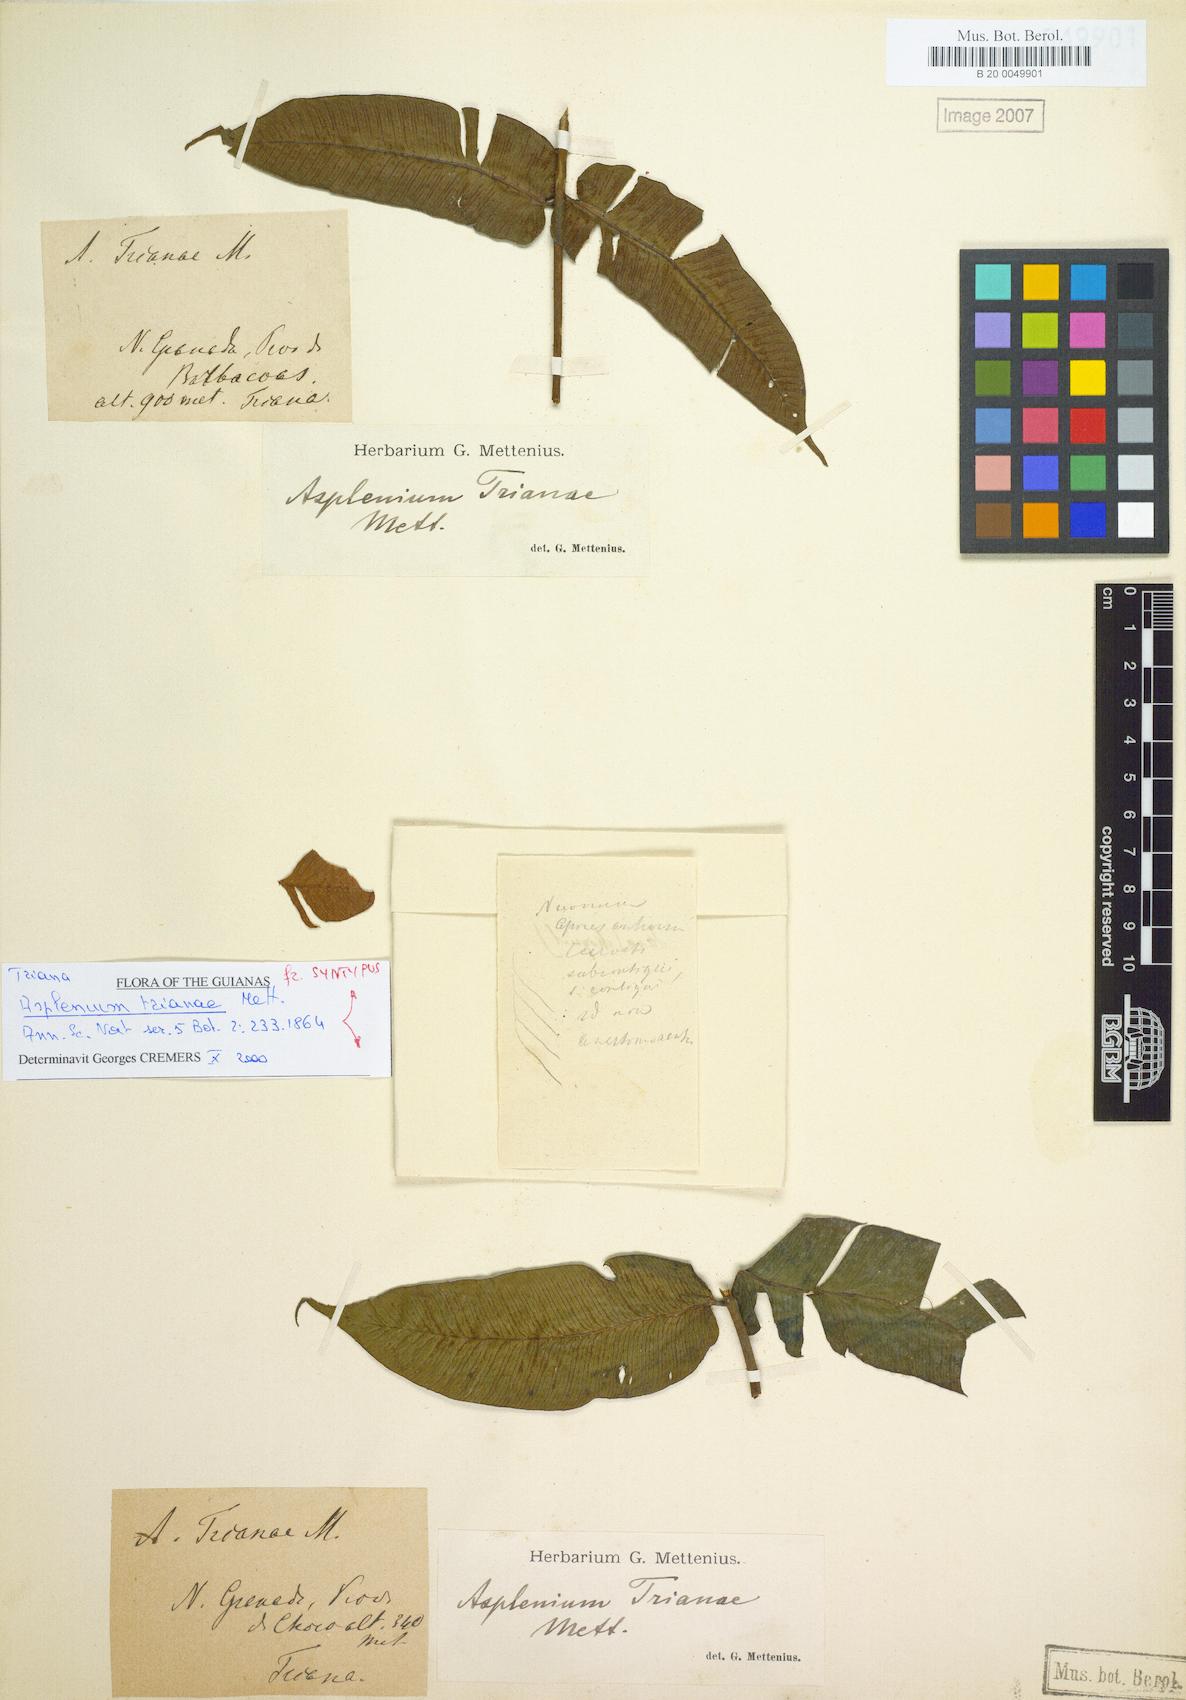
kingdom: Plantae
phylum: Tracheophyta
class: Polypodiopsida
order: Polypodiales
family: Athyriaceae
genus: Diplazium
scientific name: Diplazium trianae
